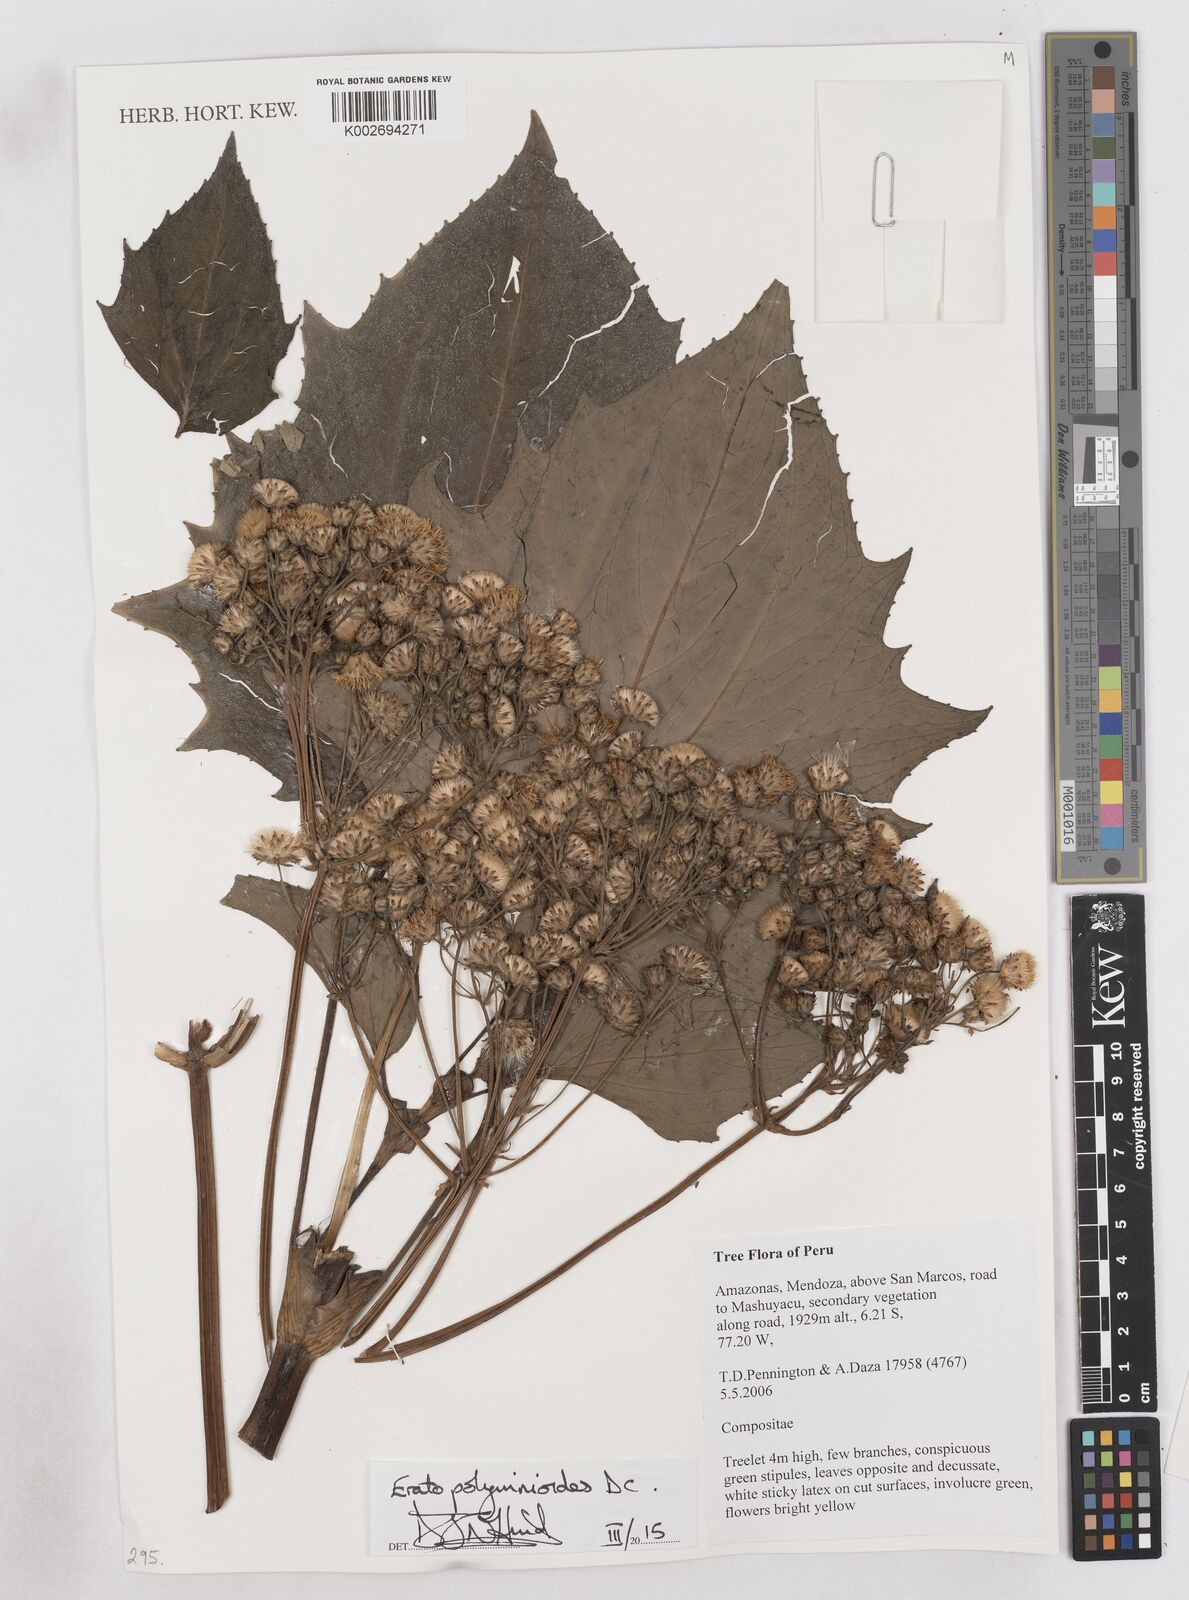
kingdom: Plantae
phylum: Tracheophyta
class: Magnoliopsida
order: Asterales
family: Asteraceae
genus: Erato
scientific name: Erato polymnioides
